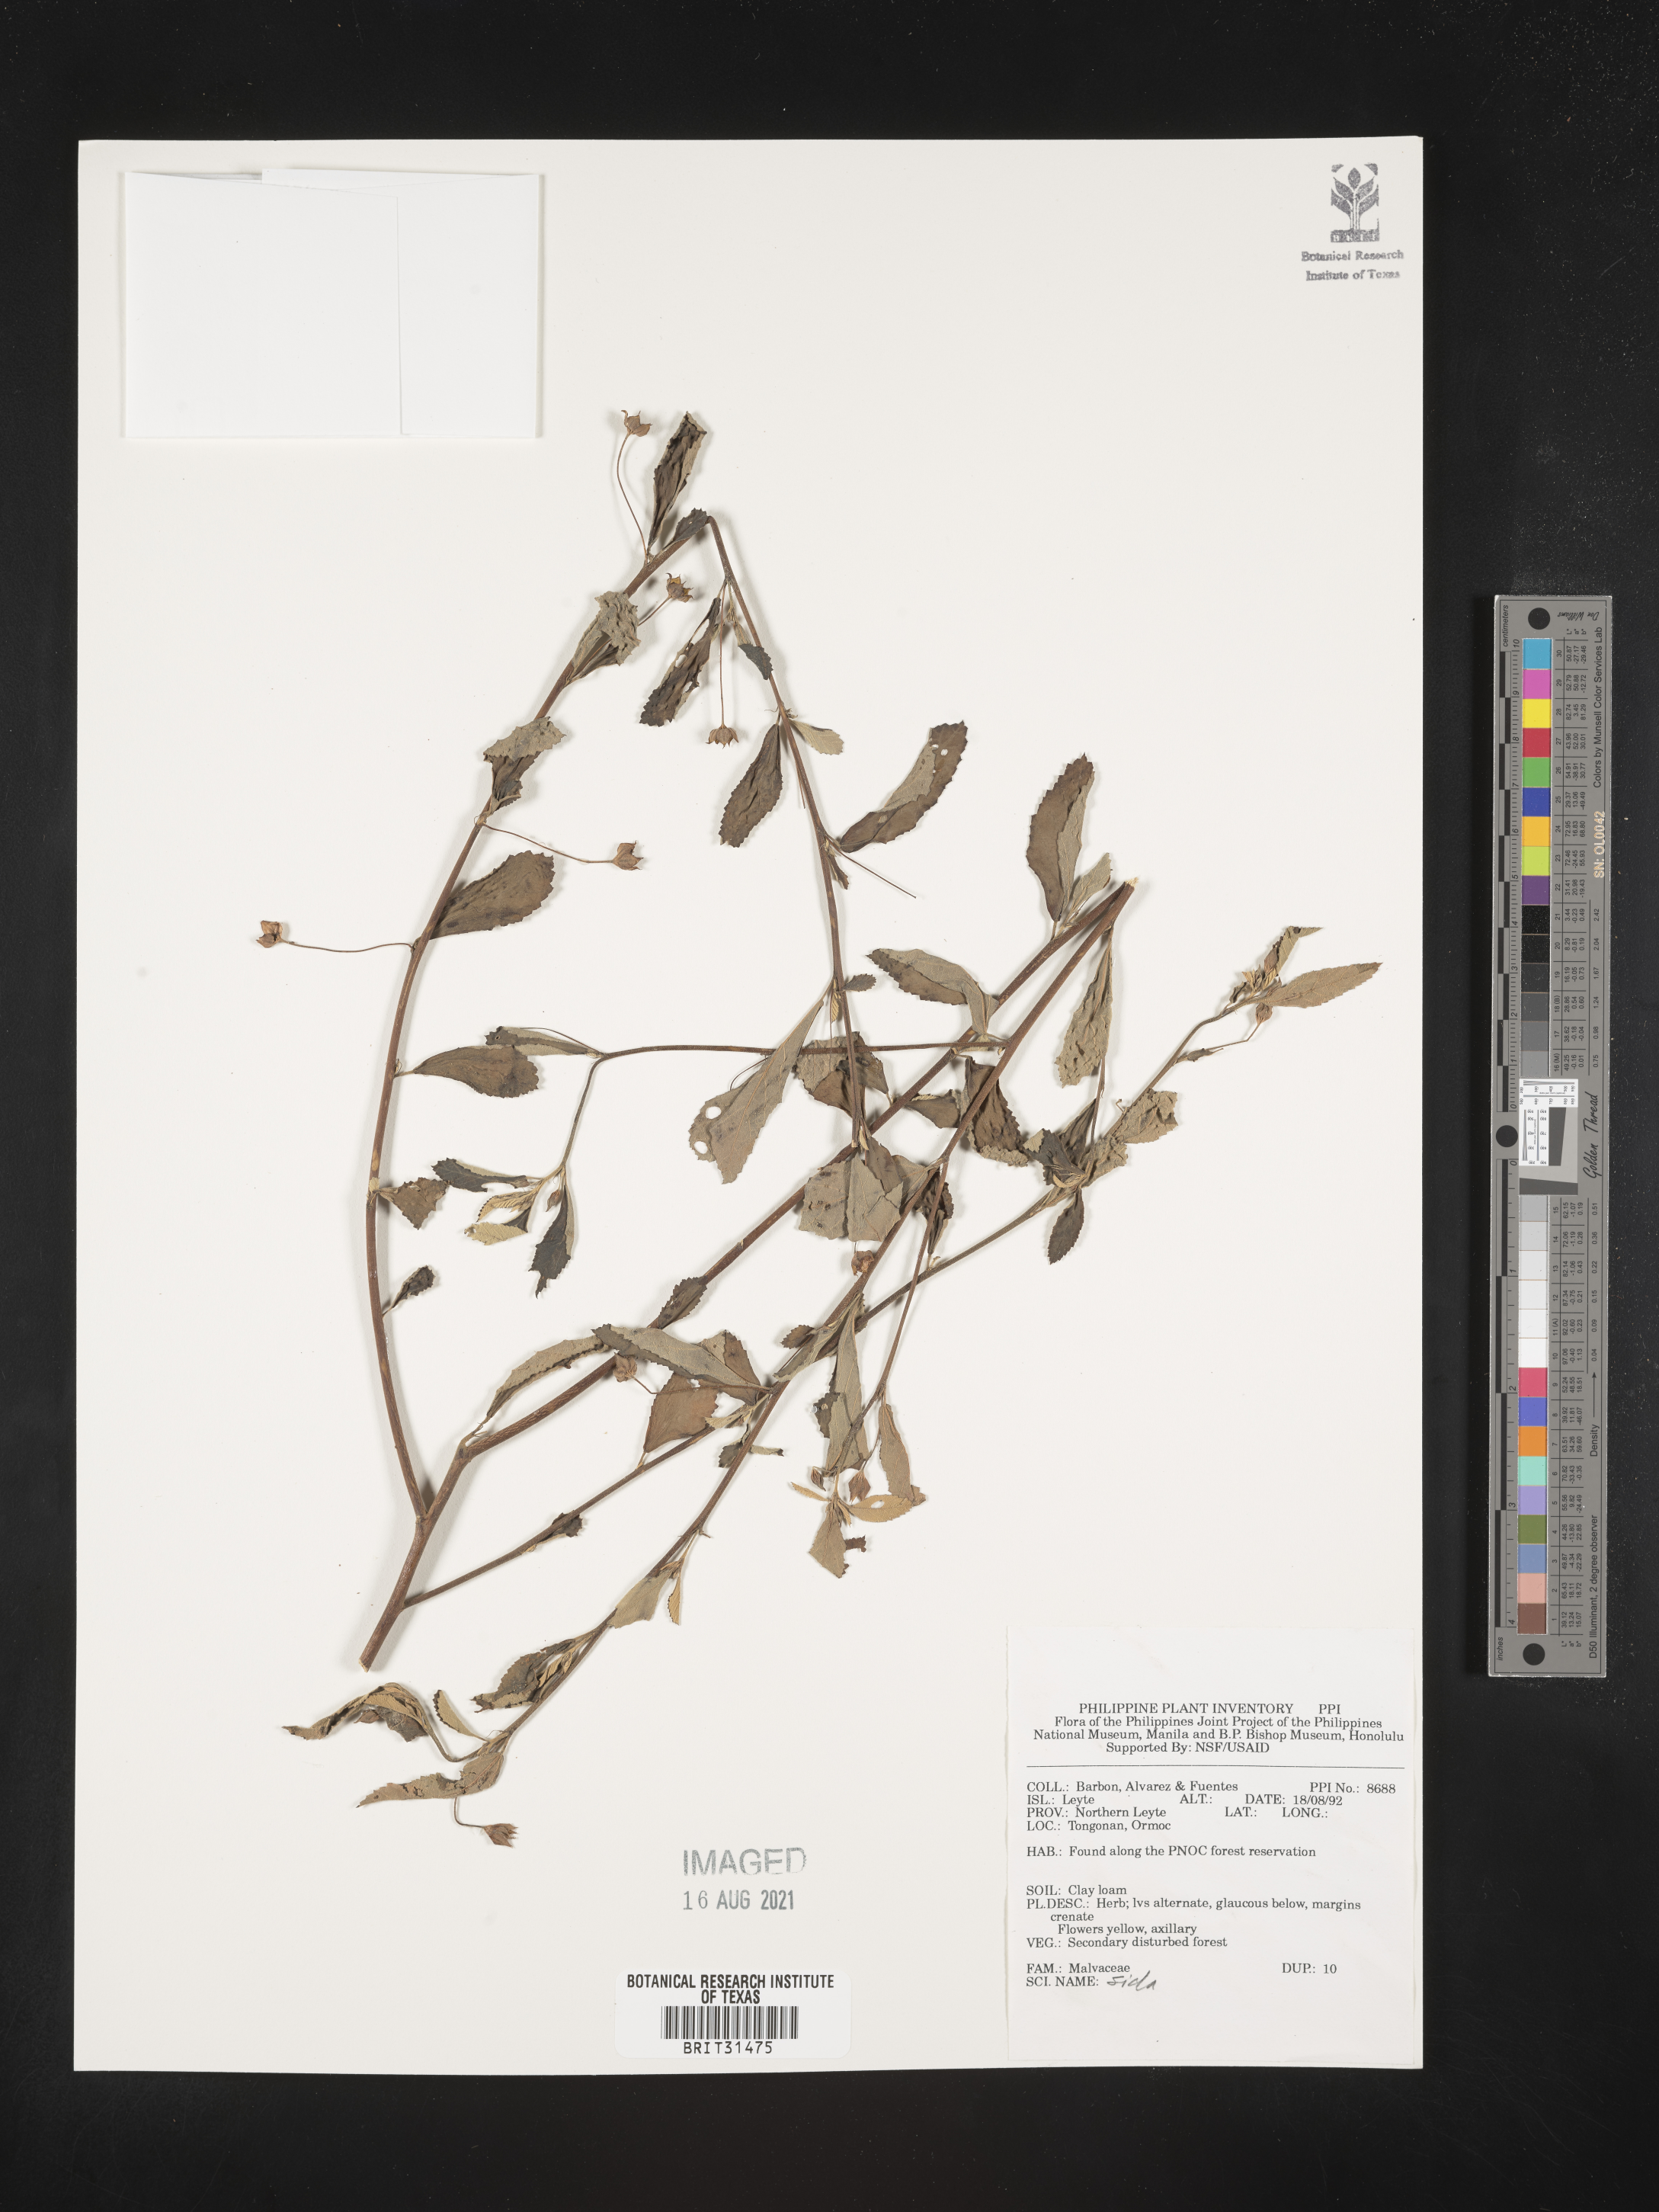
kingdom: Plantae
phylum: Tracheophyta
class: Magnoliopsida
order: Malvales
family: Malvaceae
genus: Sida
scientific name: Sida
